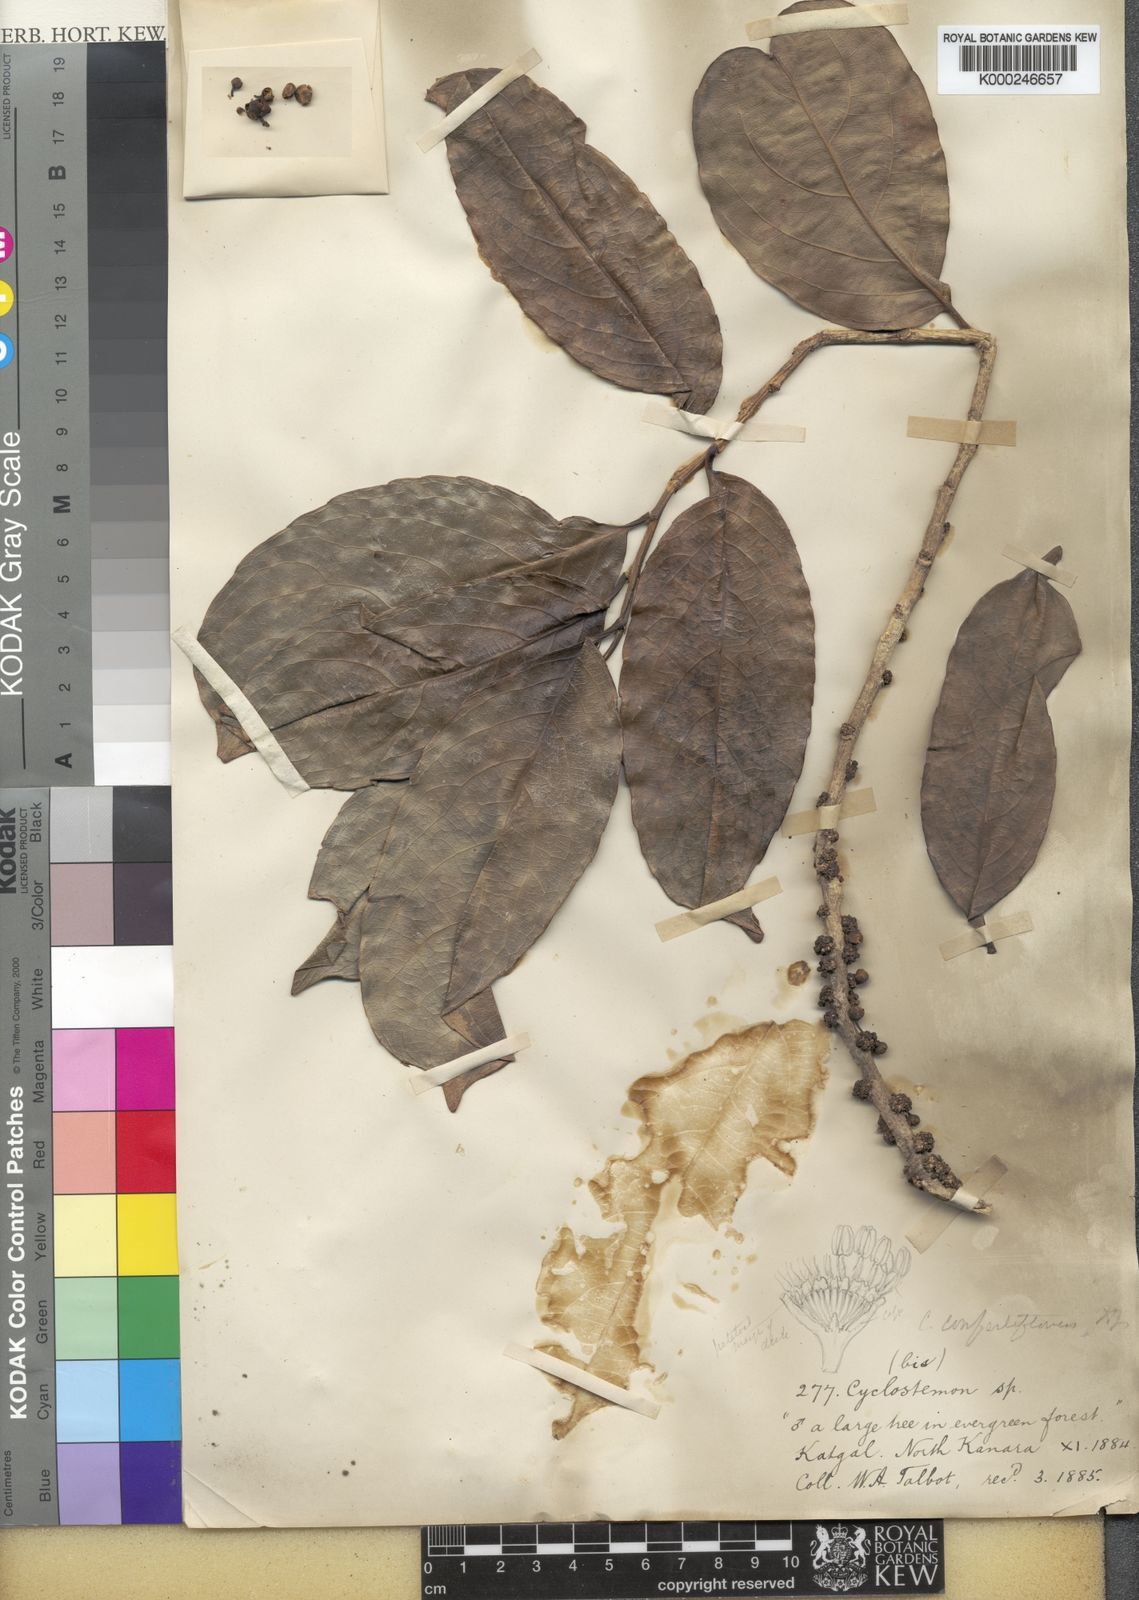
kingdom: Plantae
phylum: Tracheophyta
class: Magnoliopsida
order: Malpighiales
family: Putranjivaceae
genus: Drypetes
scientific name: Drypetes confertiflora
